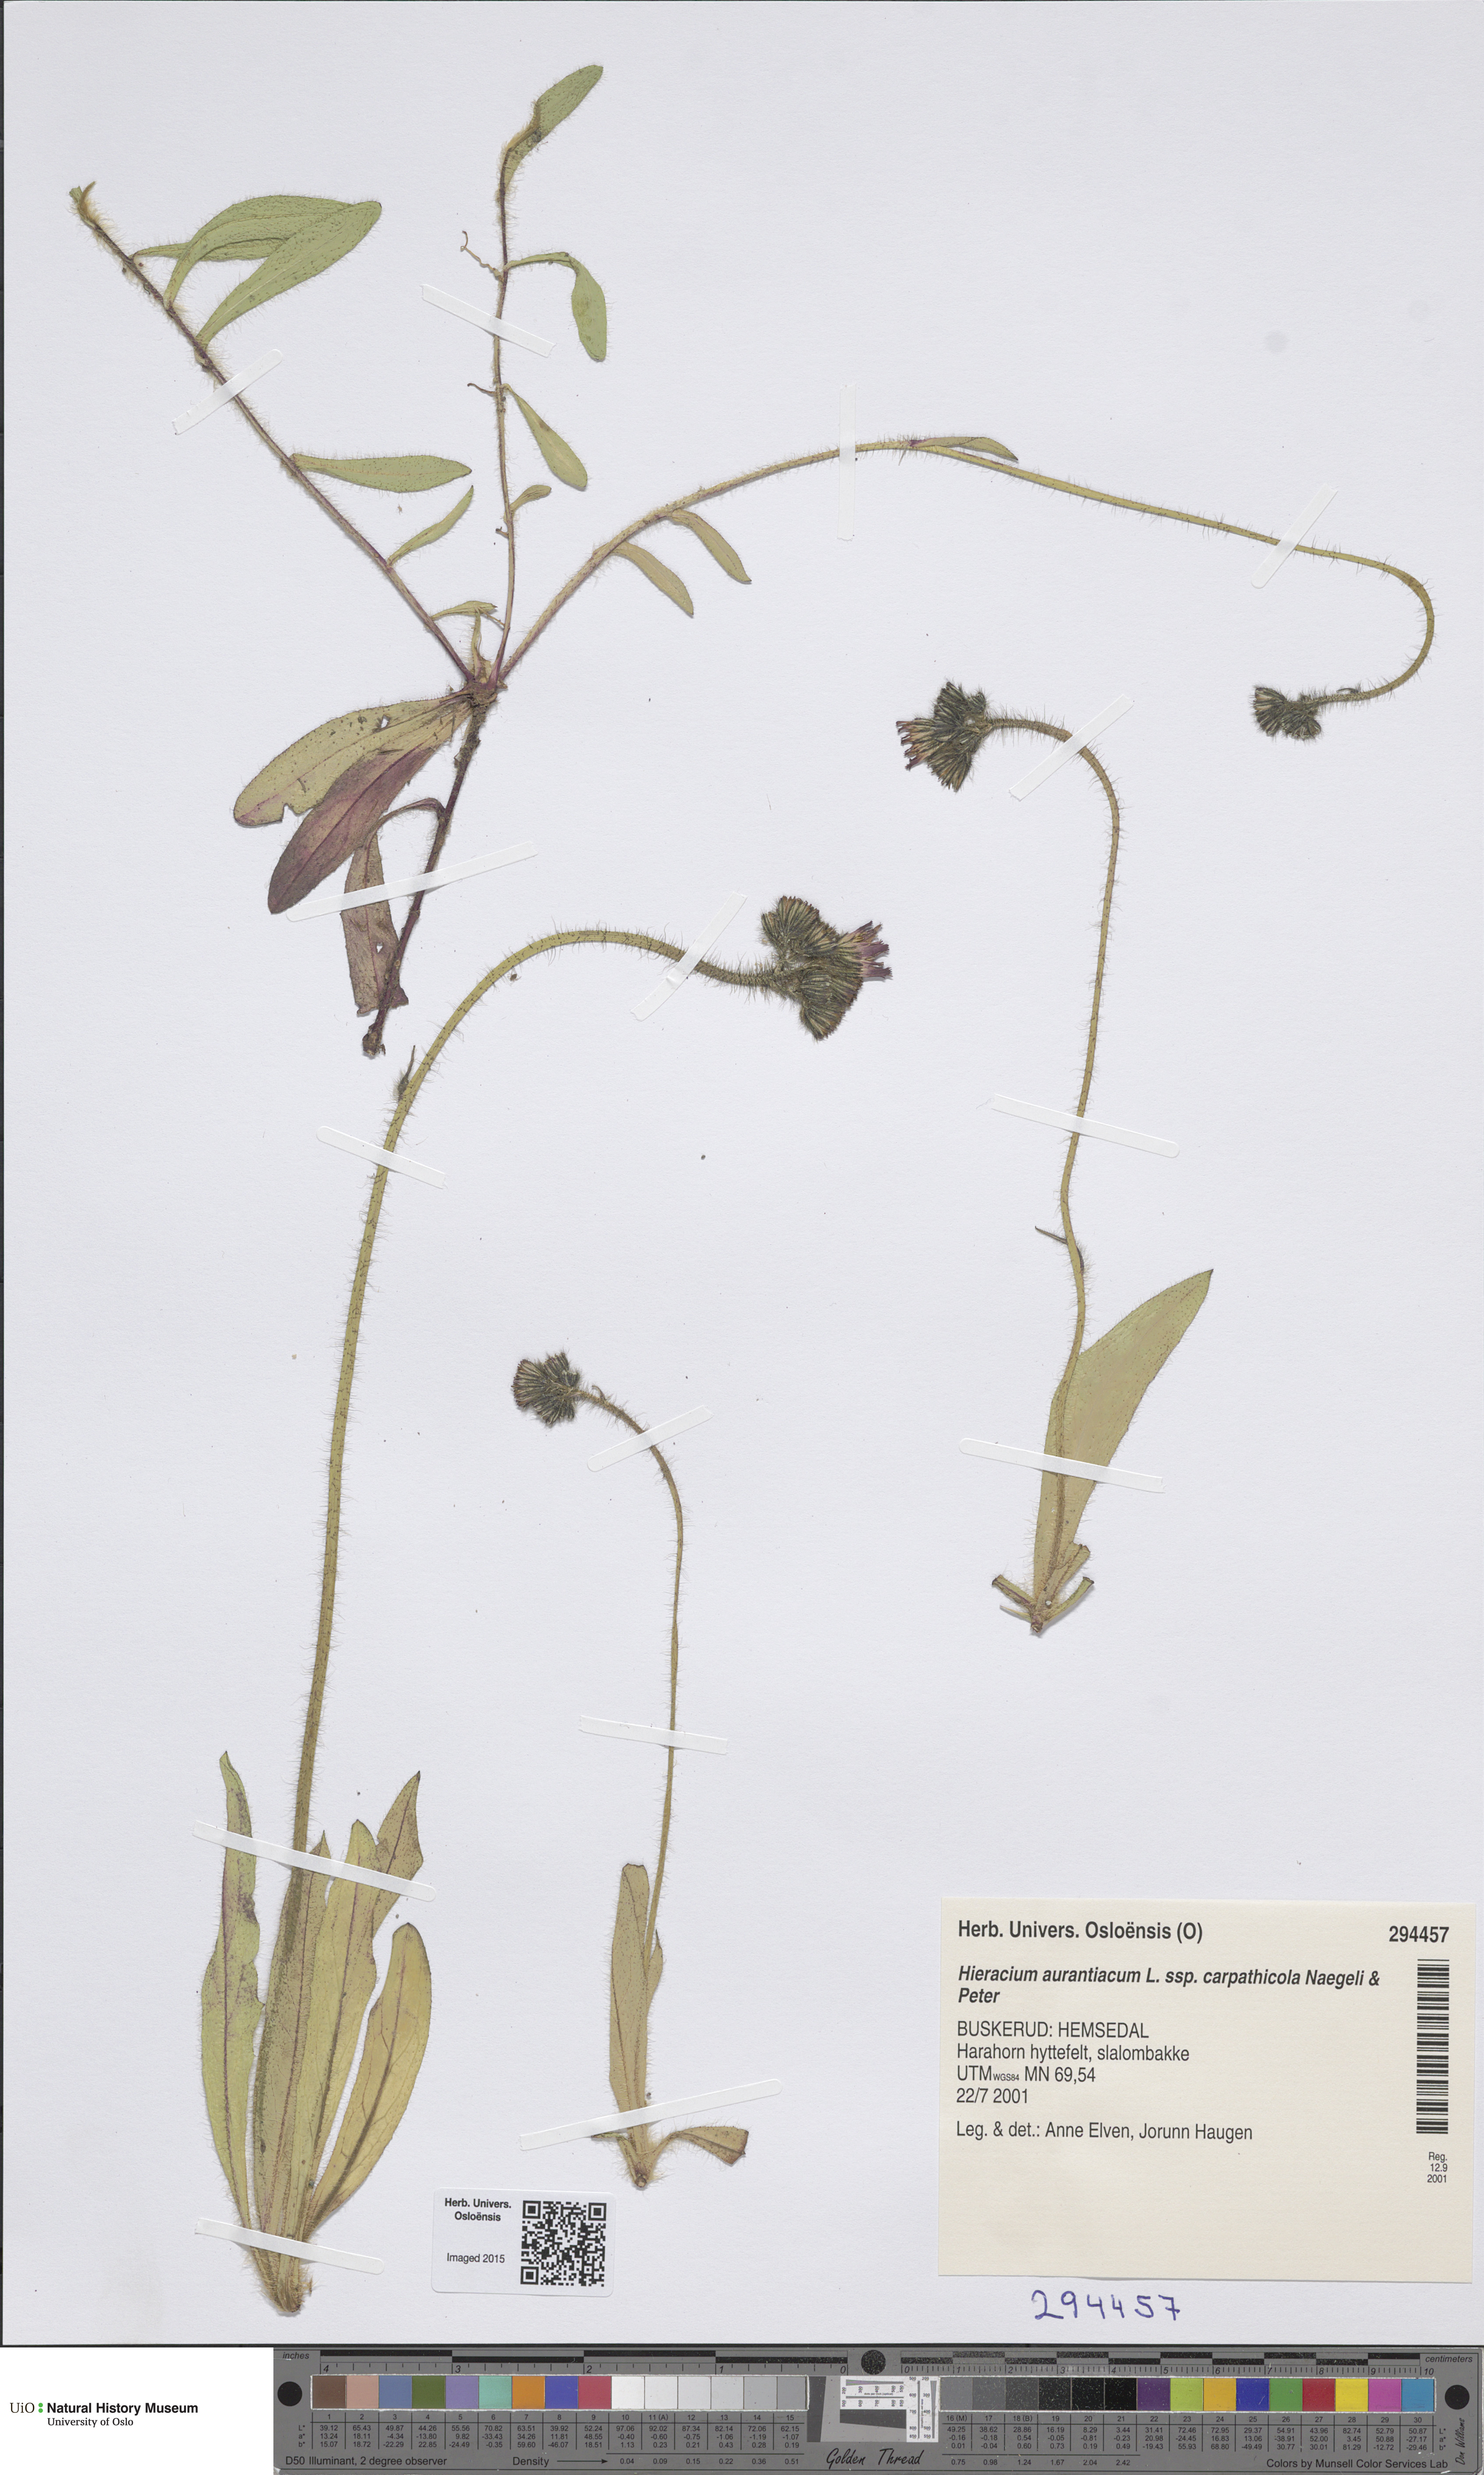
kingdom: Plantae
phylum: Tracheophyta
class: Magnoliopsida
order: Asterales
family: Asteraceae
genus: Pilosella
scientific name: Pilosella aurantiaca
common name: Fox-and-cubs
